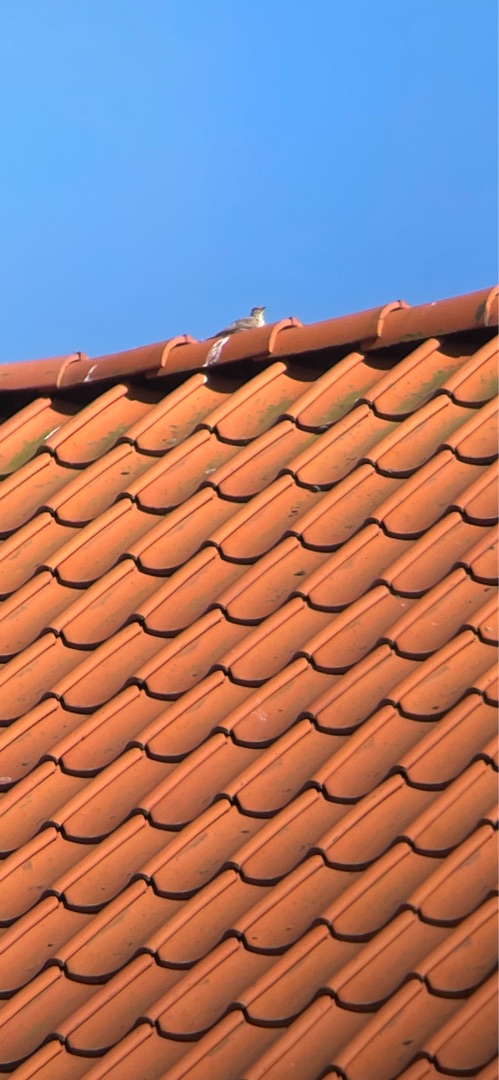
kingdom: Animalia
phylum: Chordata
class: Aves
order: Passeriformes
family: Alaudidae
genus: Galerida
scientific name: Galerida cristata
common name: Toplærke
